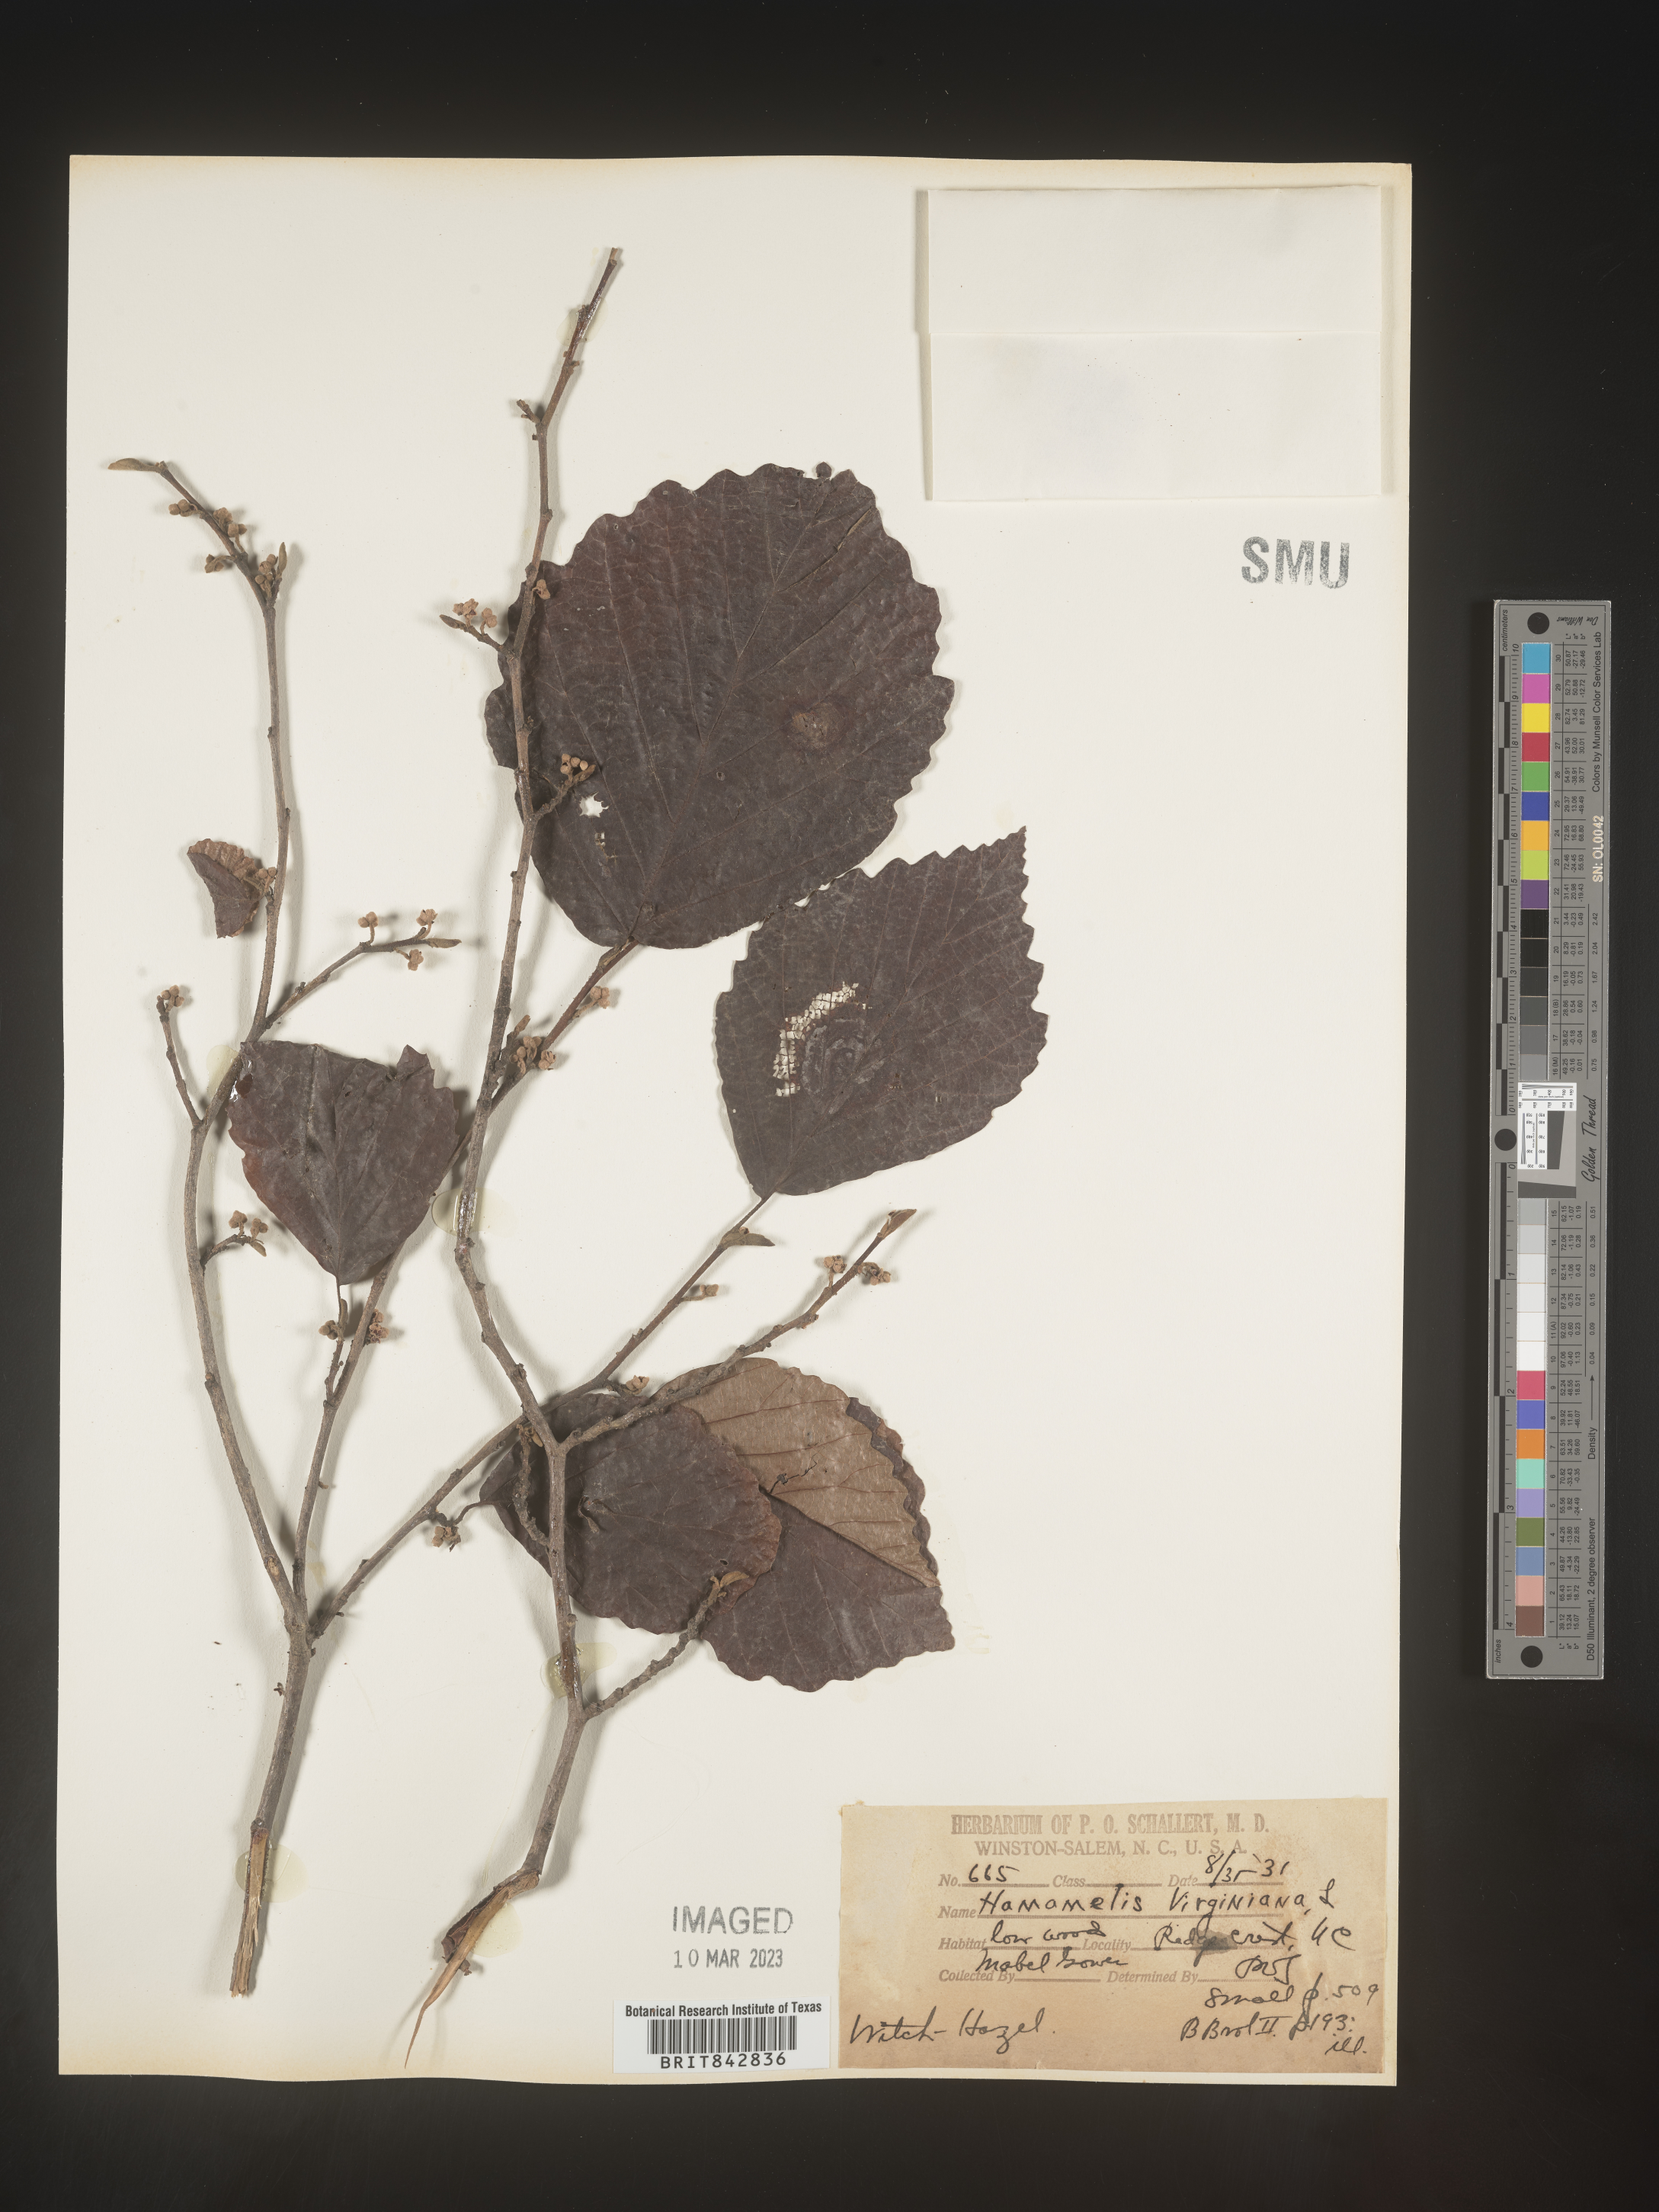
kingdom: Plantae
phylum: Tracheophyta
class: Magnoliopsida
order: Saxifragales
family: Hamamelidaceae
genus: Hamamelis
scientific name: Hamamelis virginiana
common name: Witch-hazel
